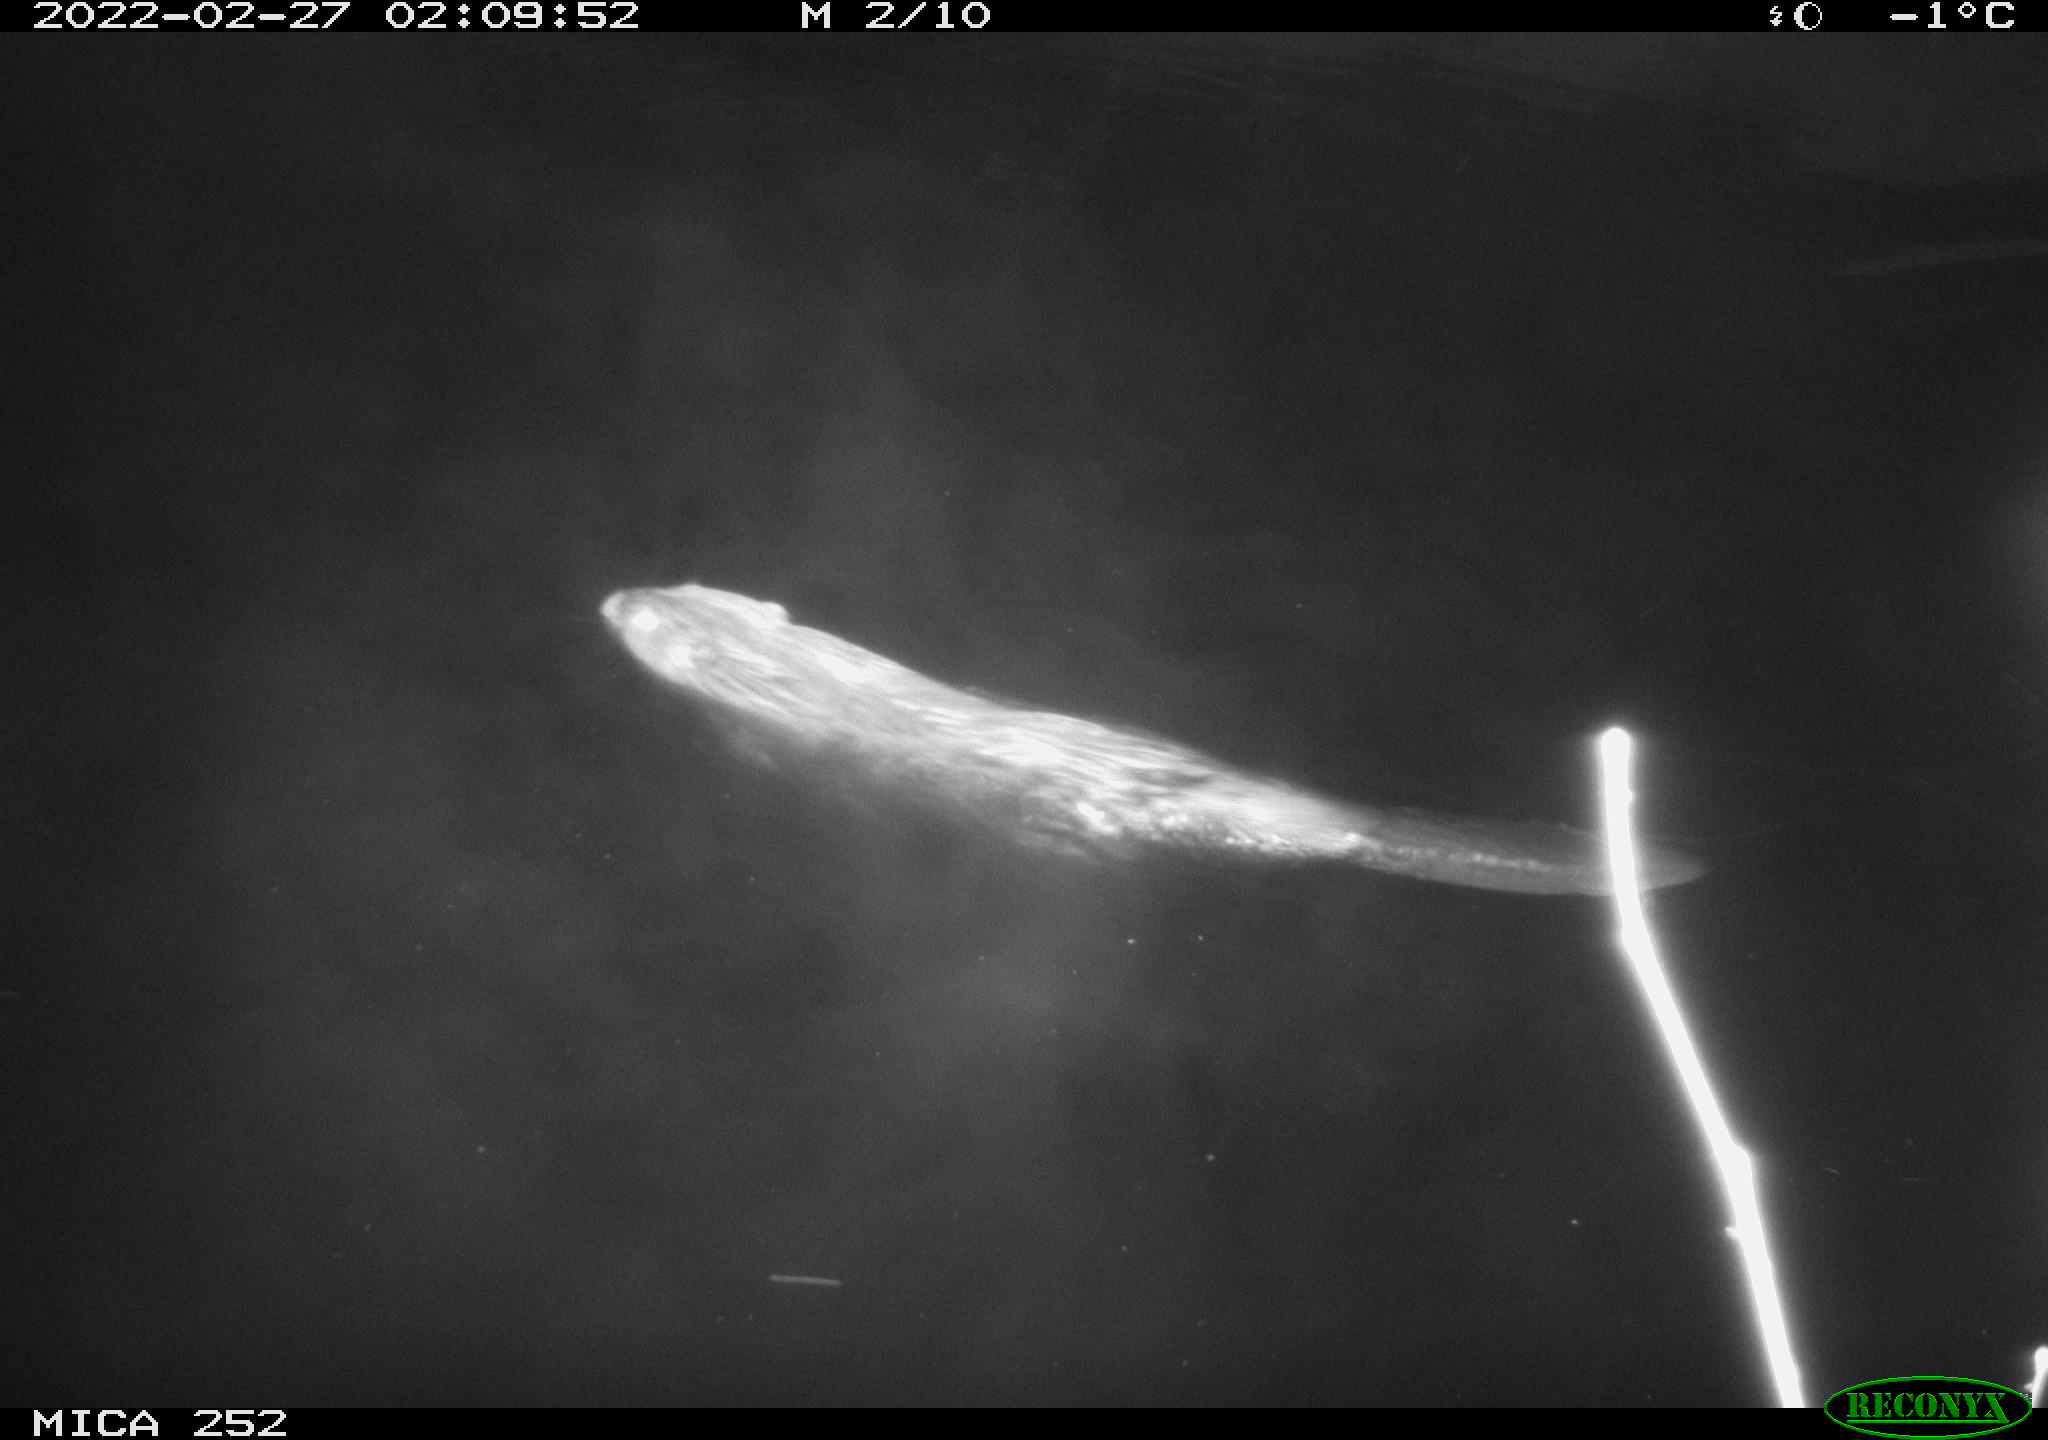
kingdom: Animalia
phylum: Chordata
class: Mammalia
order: Rodentia
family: Castoridae
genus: Castor
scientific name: Castor fiber
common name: Eurasian beaver
